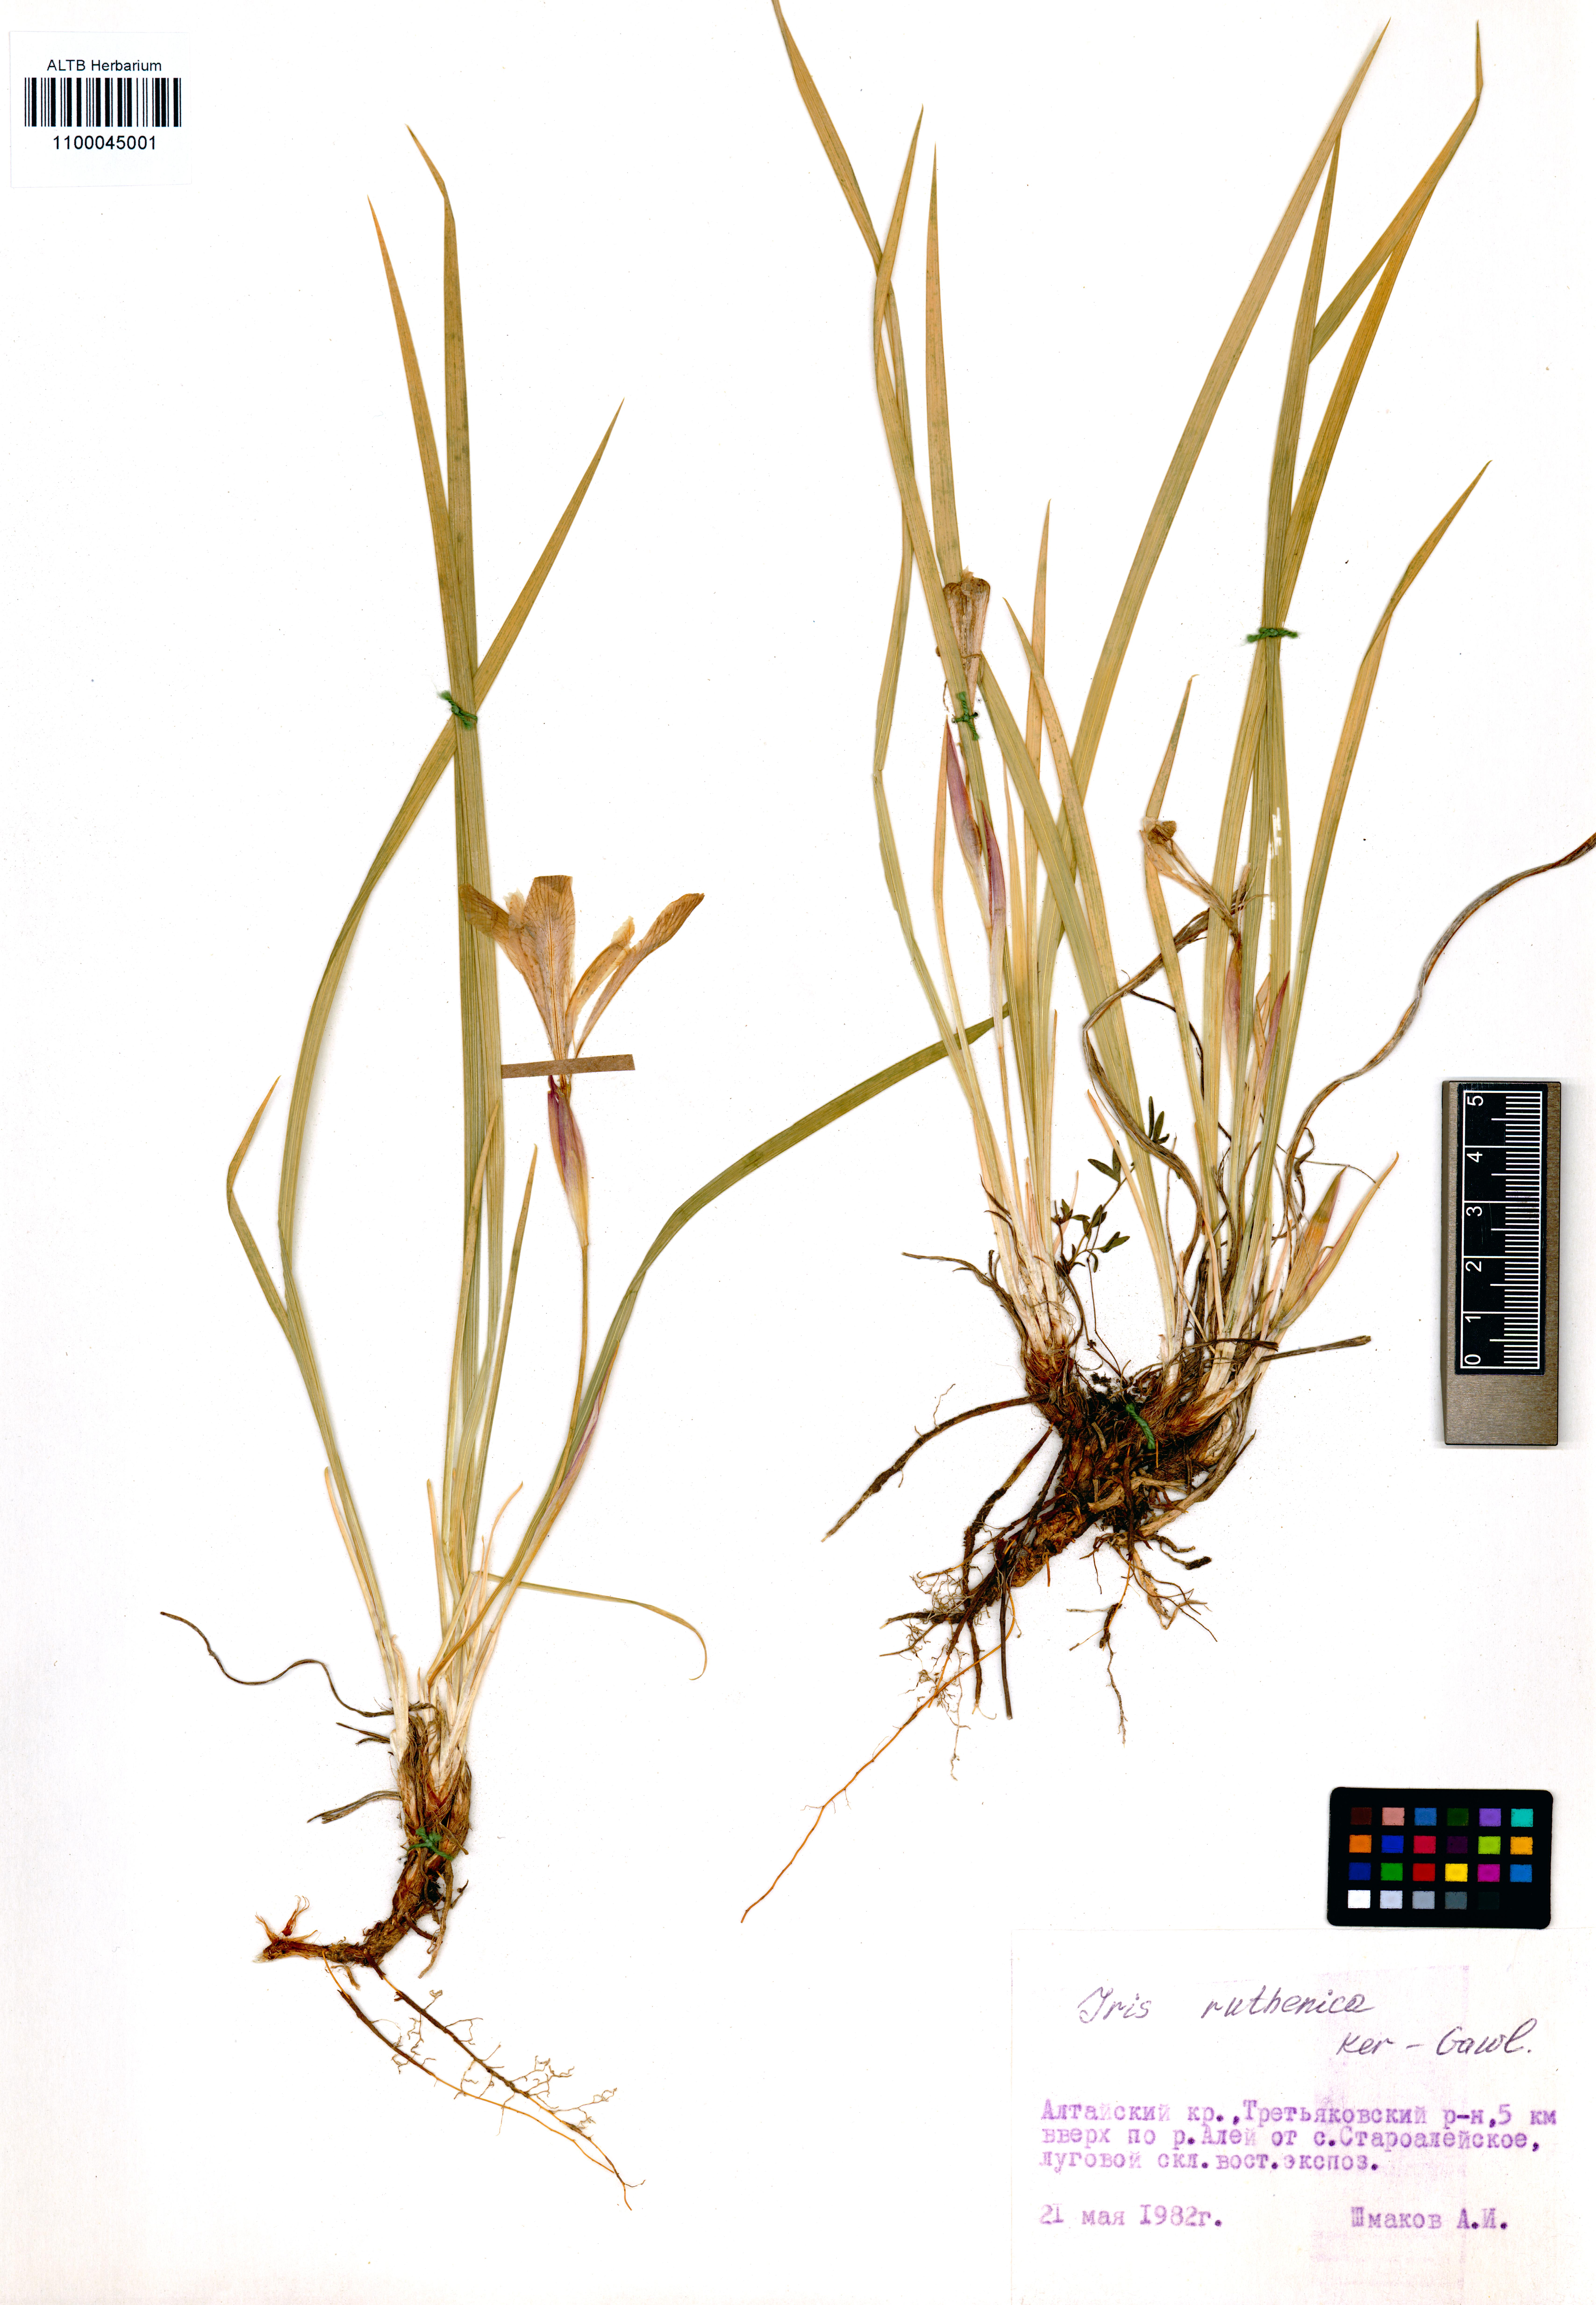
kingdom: Plantae
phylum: Tracheophyta
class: Liliopsida
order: Asparagales
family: Iridaceae
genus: Iris
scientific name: Iris ruthenica
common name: Purple-bract iris
